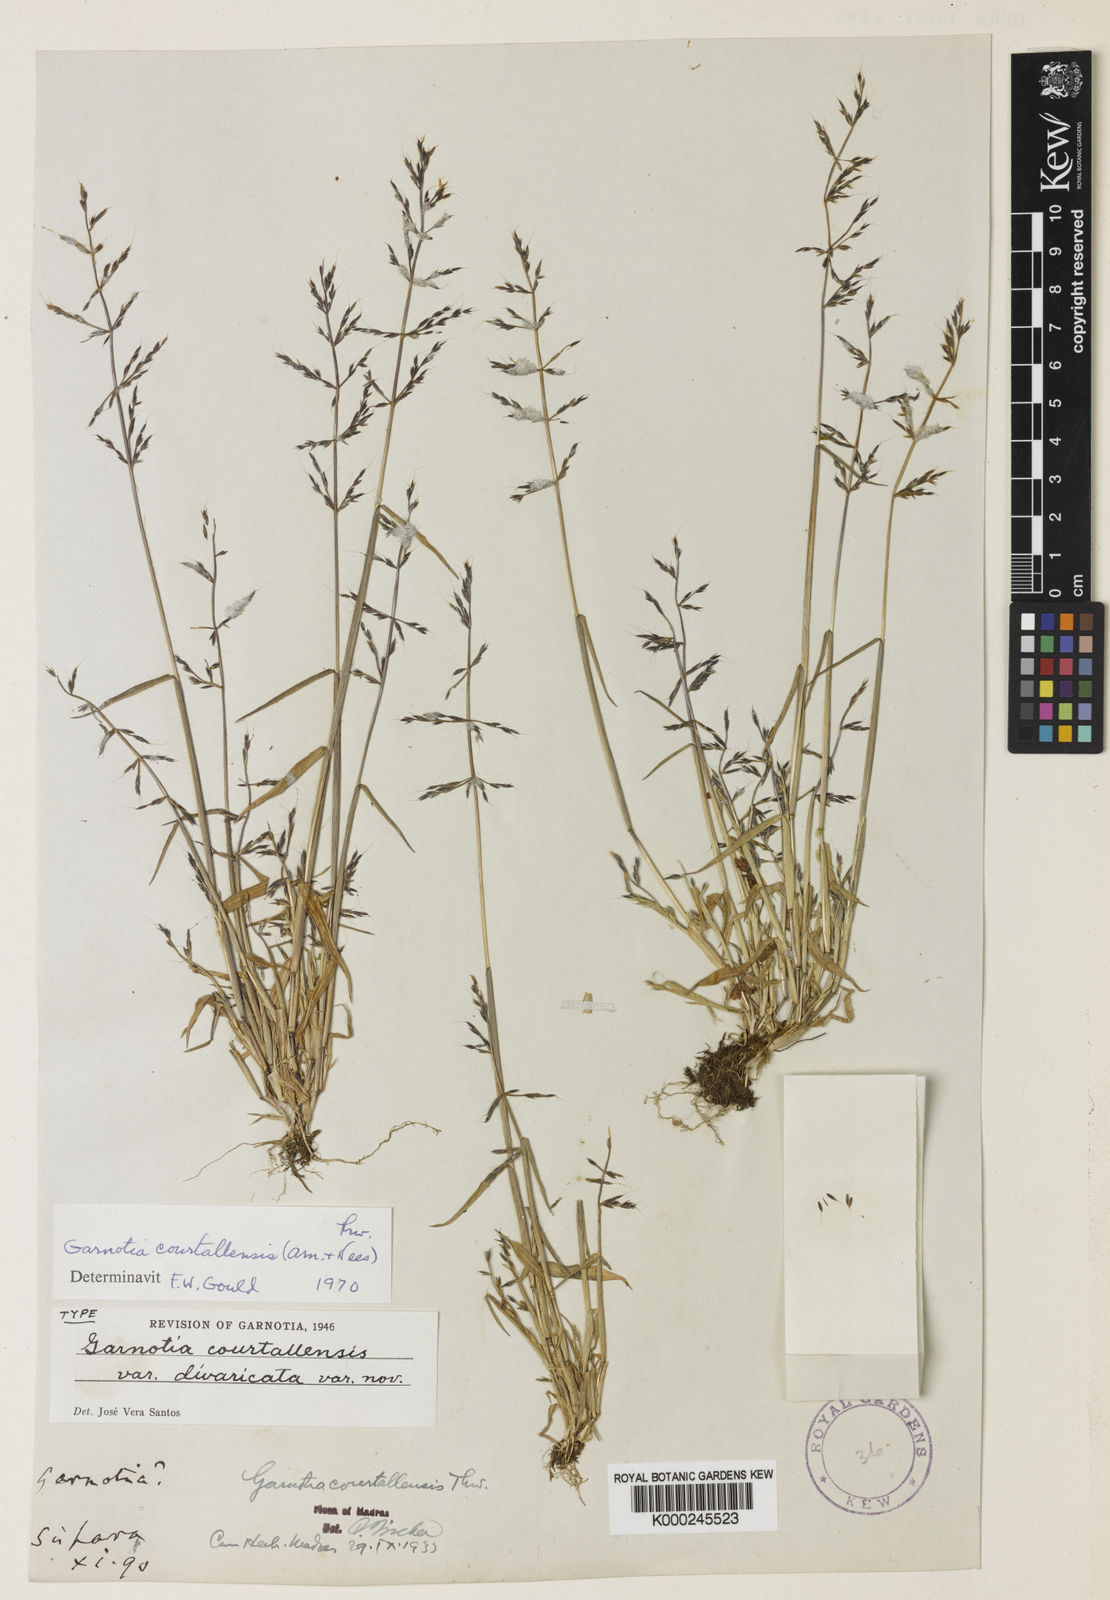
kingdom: Plantae
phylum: Tracheophyta
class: Liliopsida
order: Poales
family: Poaceae
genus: Garnotia
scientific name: Garnotia courtallensis
